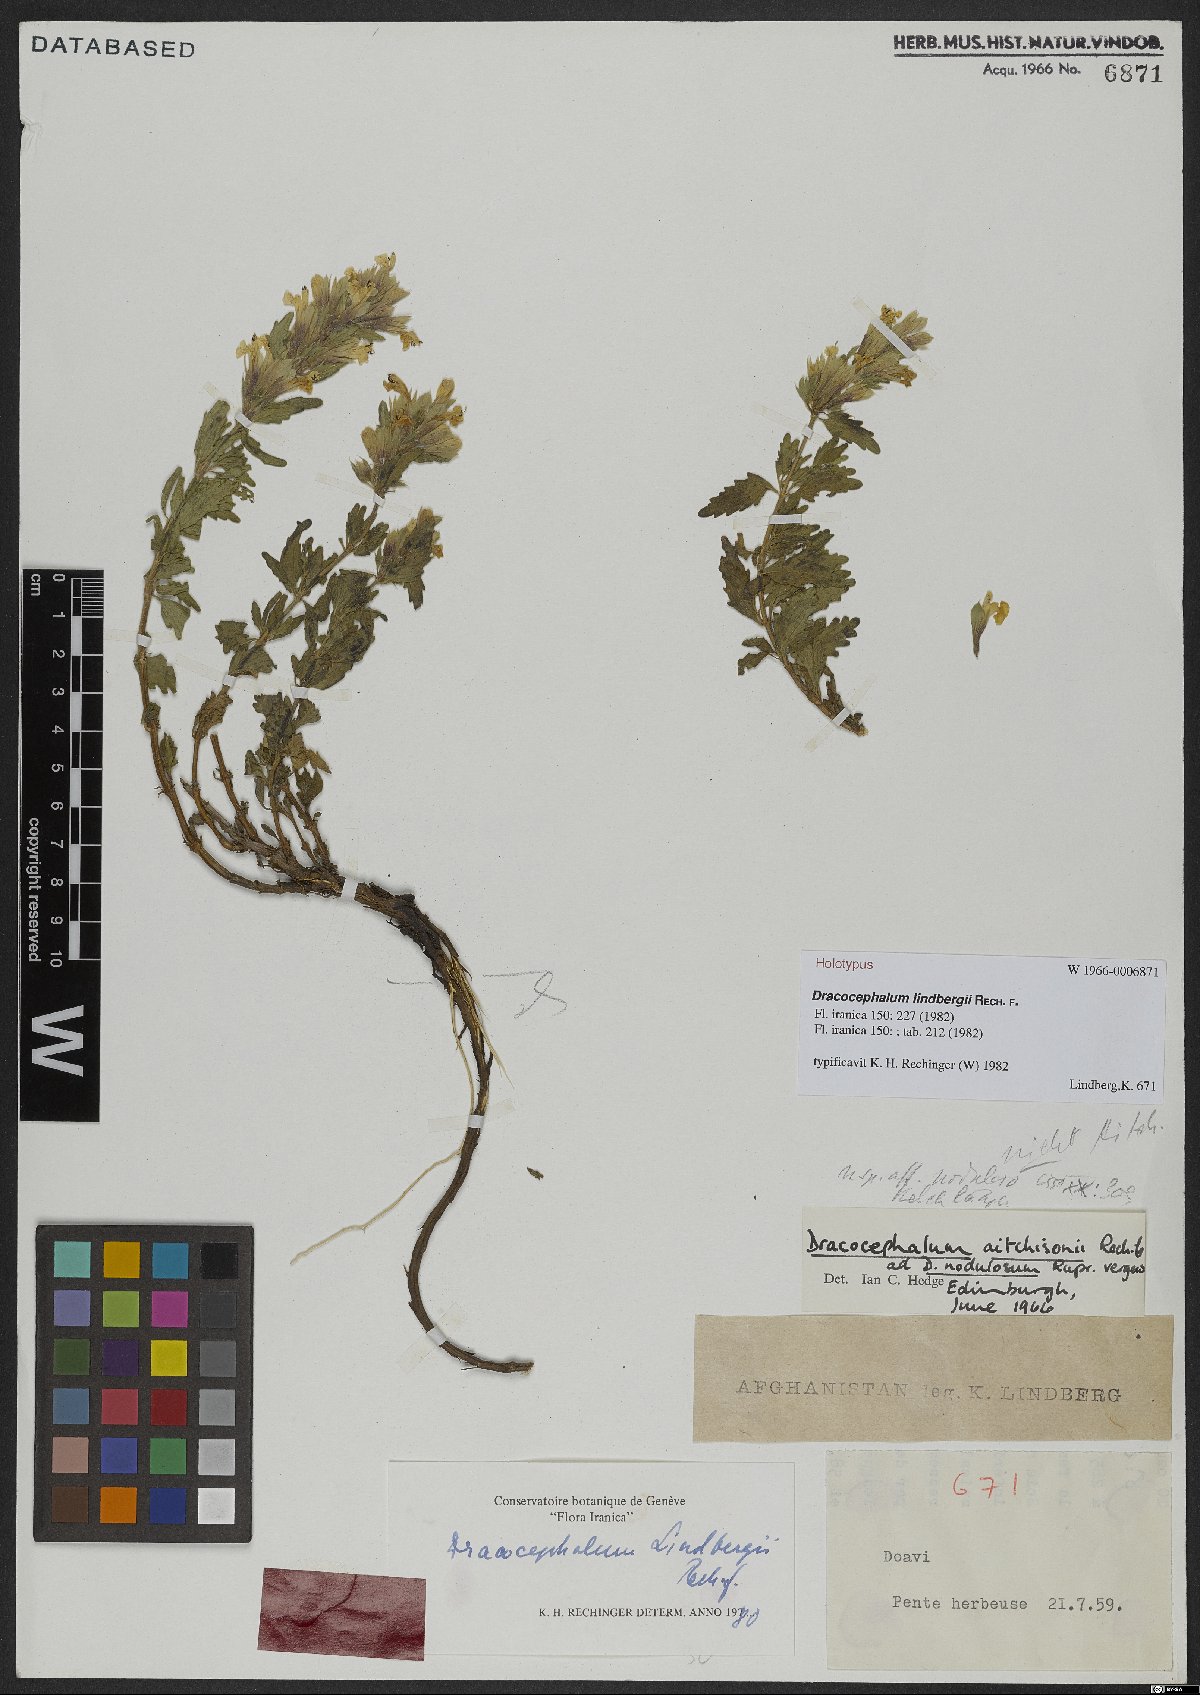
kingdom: Plantae
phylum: Tracheophyta
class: Magnoliopsida
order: Lamiales
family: Lamiaceae
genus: Dracocephalum
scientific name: Dracocephalum lindbergii
